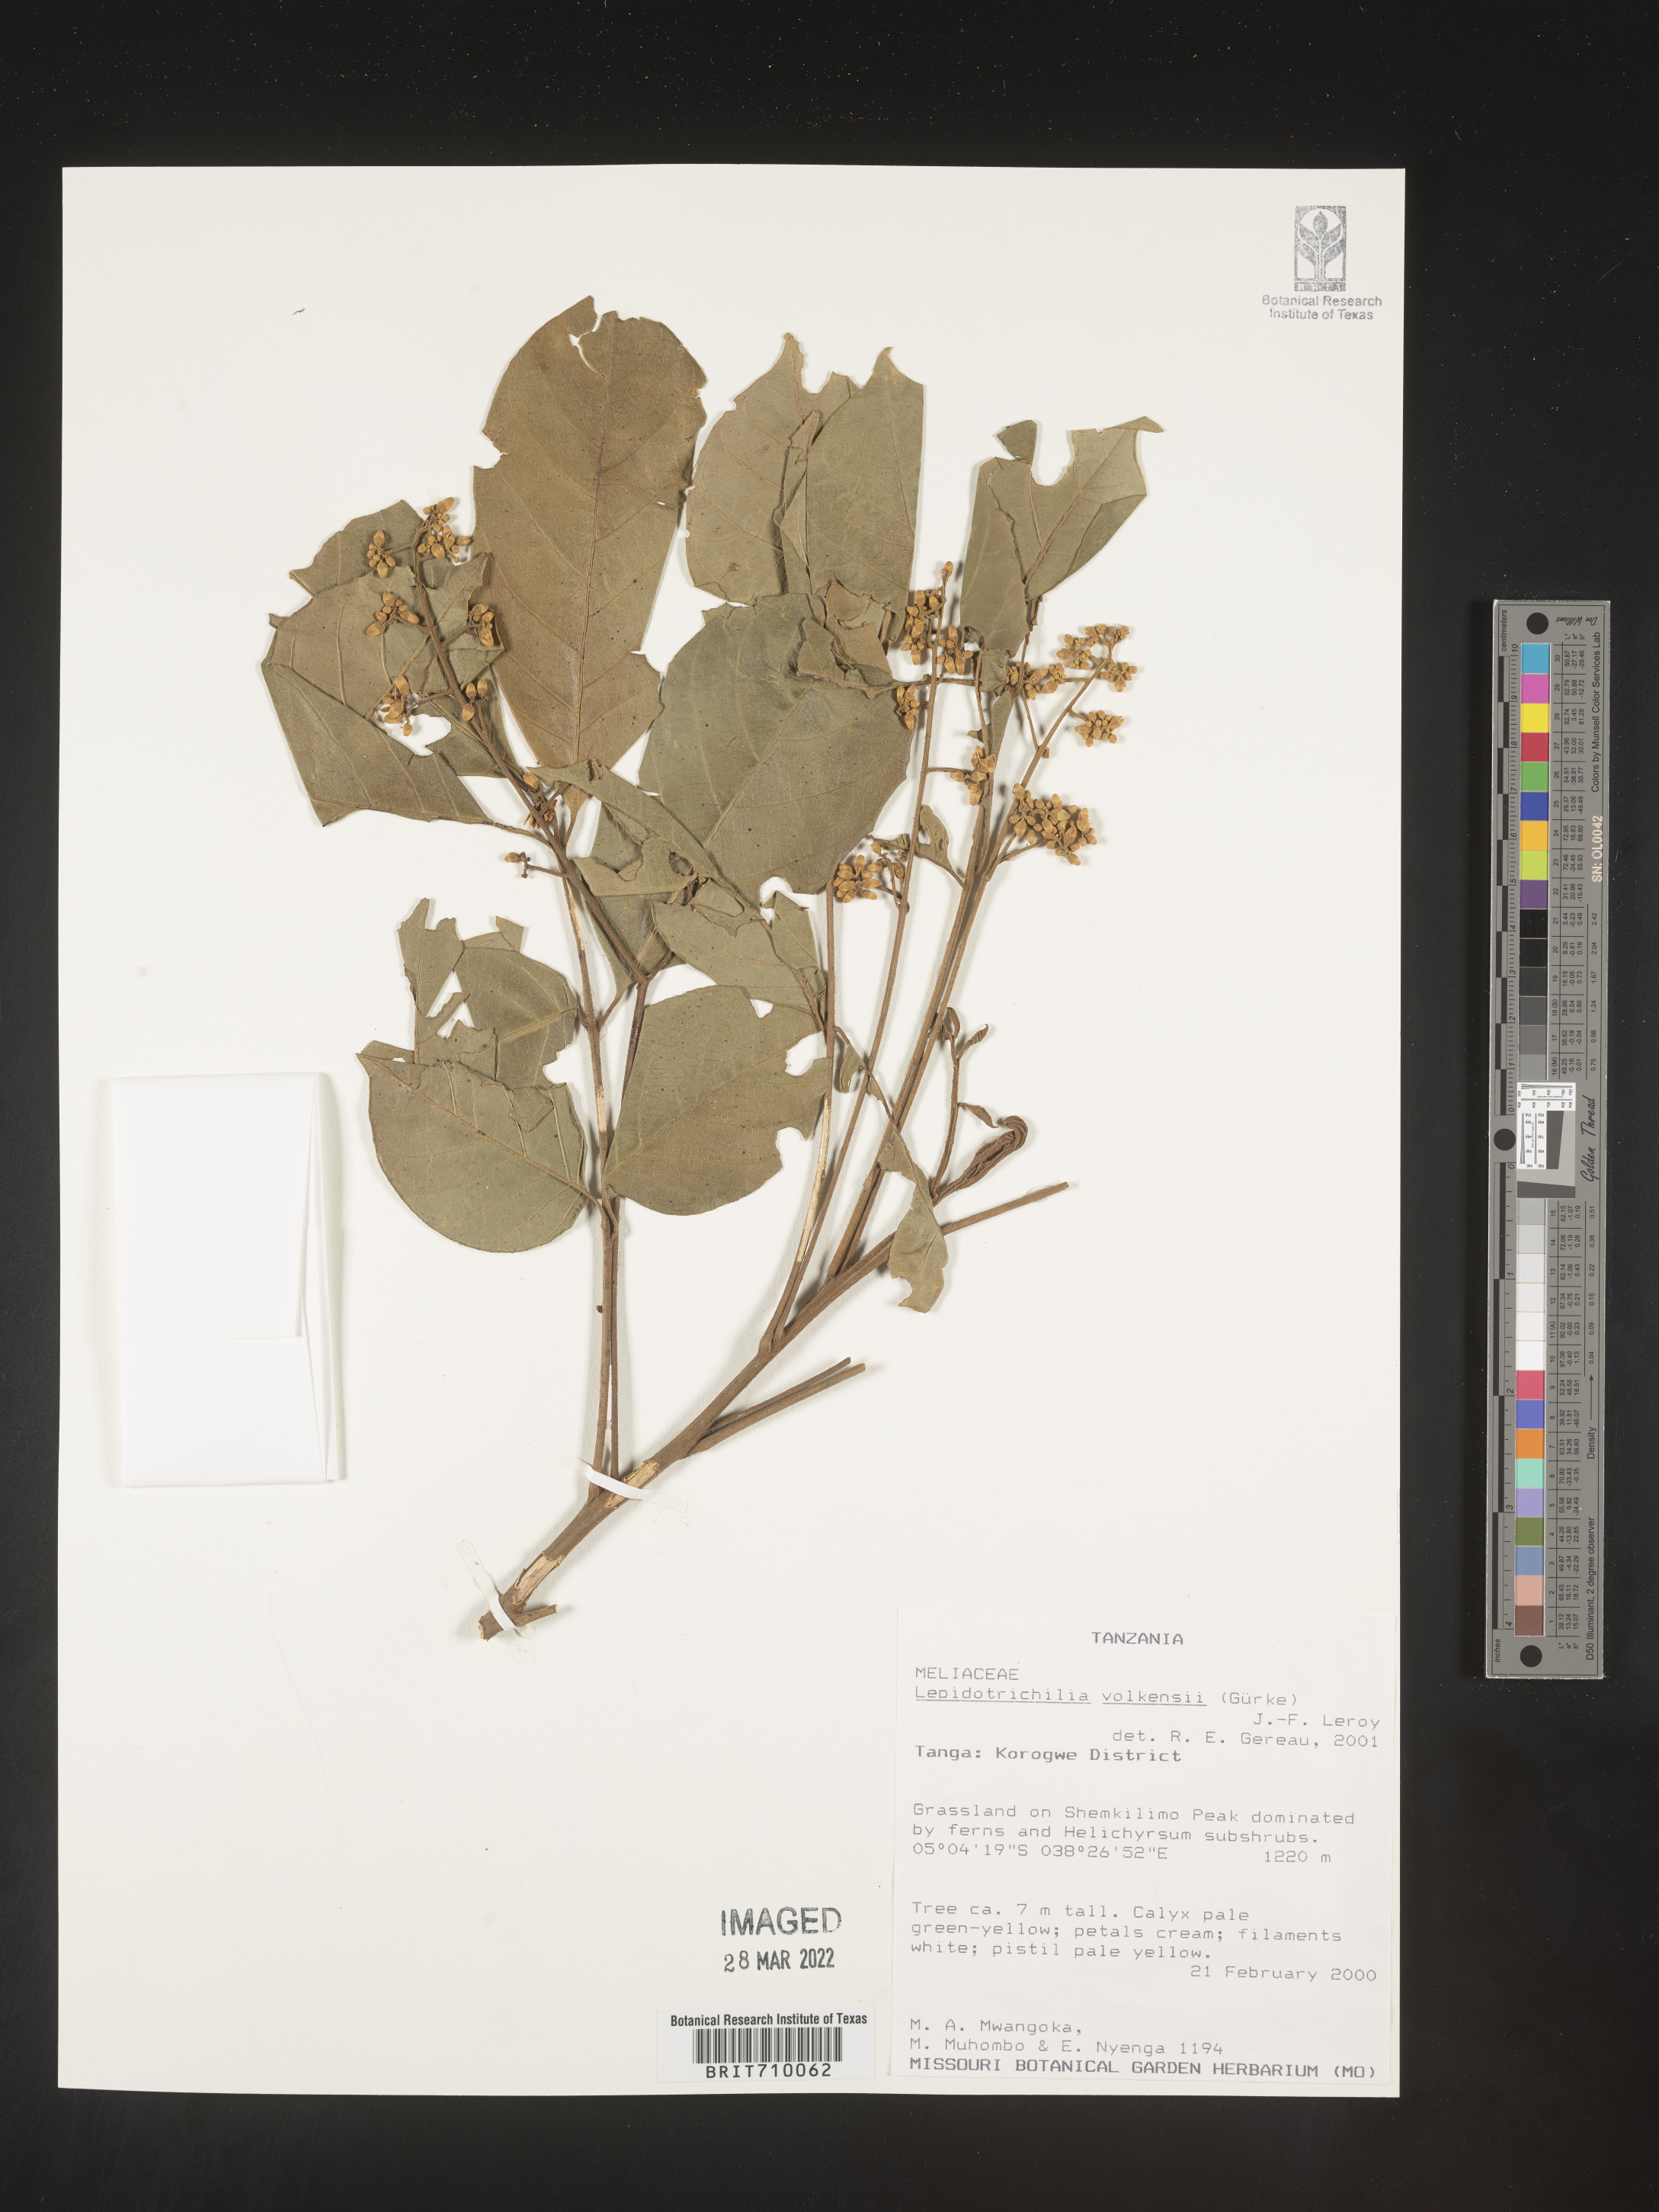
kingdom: Plantae
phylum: Tracheophyta
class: Magnoliopsida
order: Sapindales
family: Meliaceae
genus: Lepidotrichilia
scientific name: Lepidotrichilia
